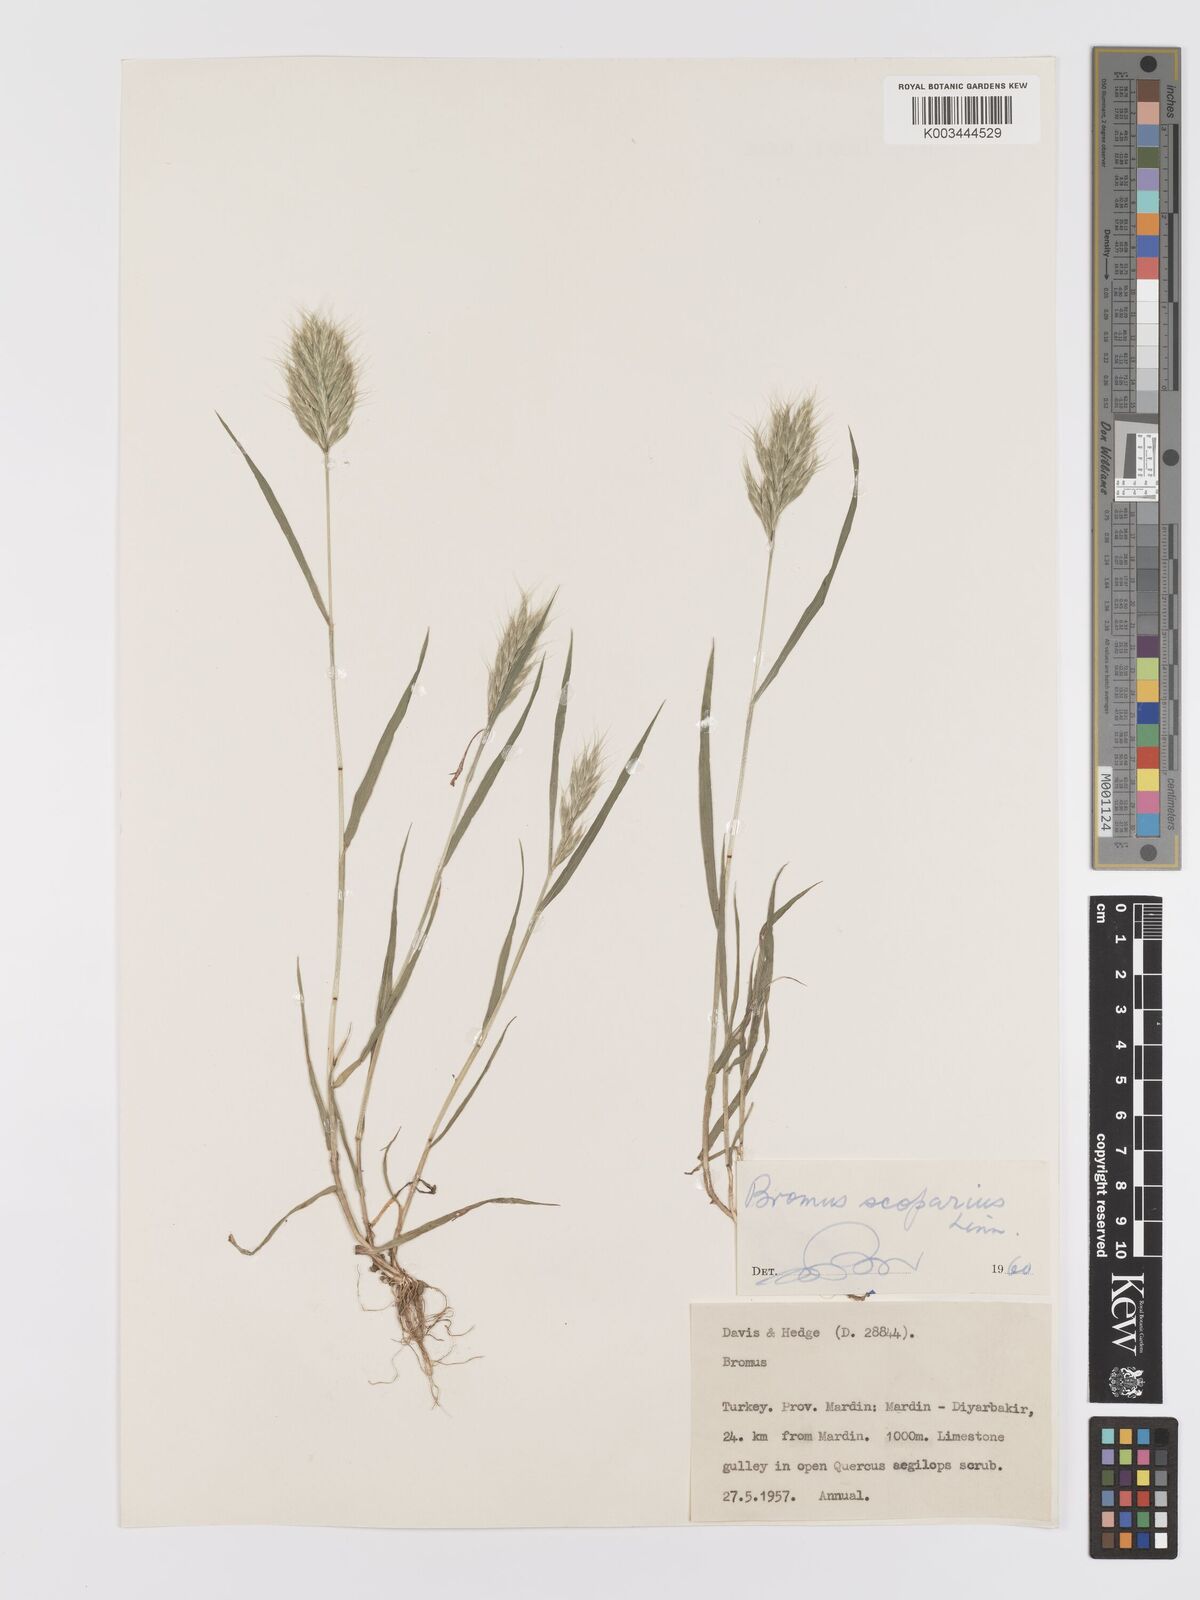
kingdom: Plantae
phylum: Tracheophyta
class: Liliopsida
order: Poales
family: Poaceae
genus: Bromus
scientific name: Bromus scoparius
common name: Broom brome
